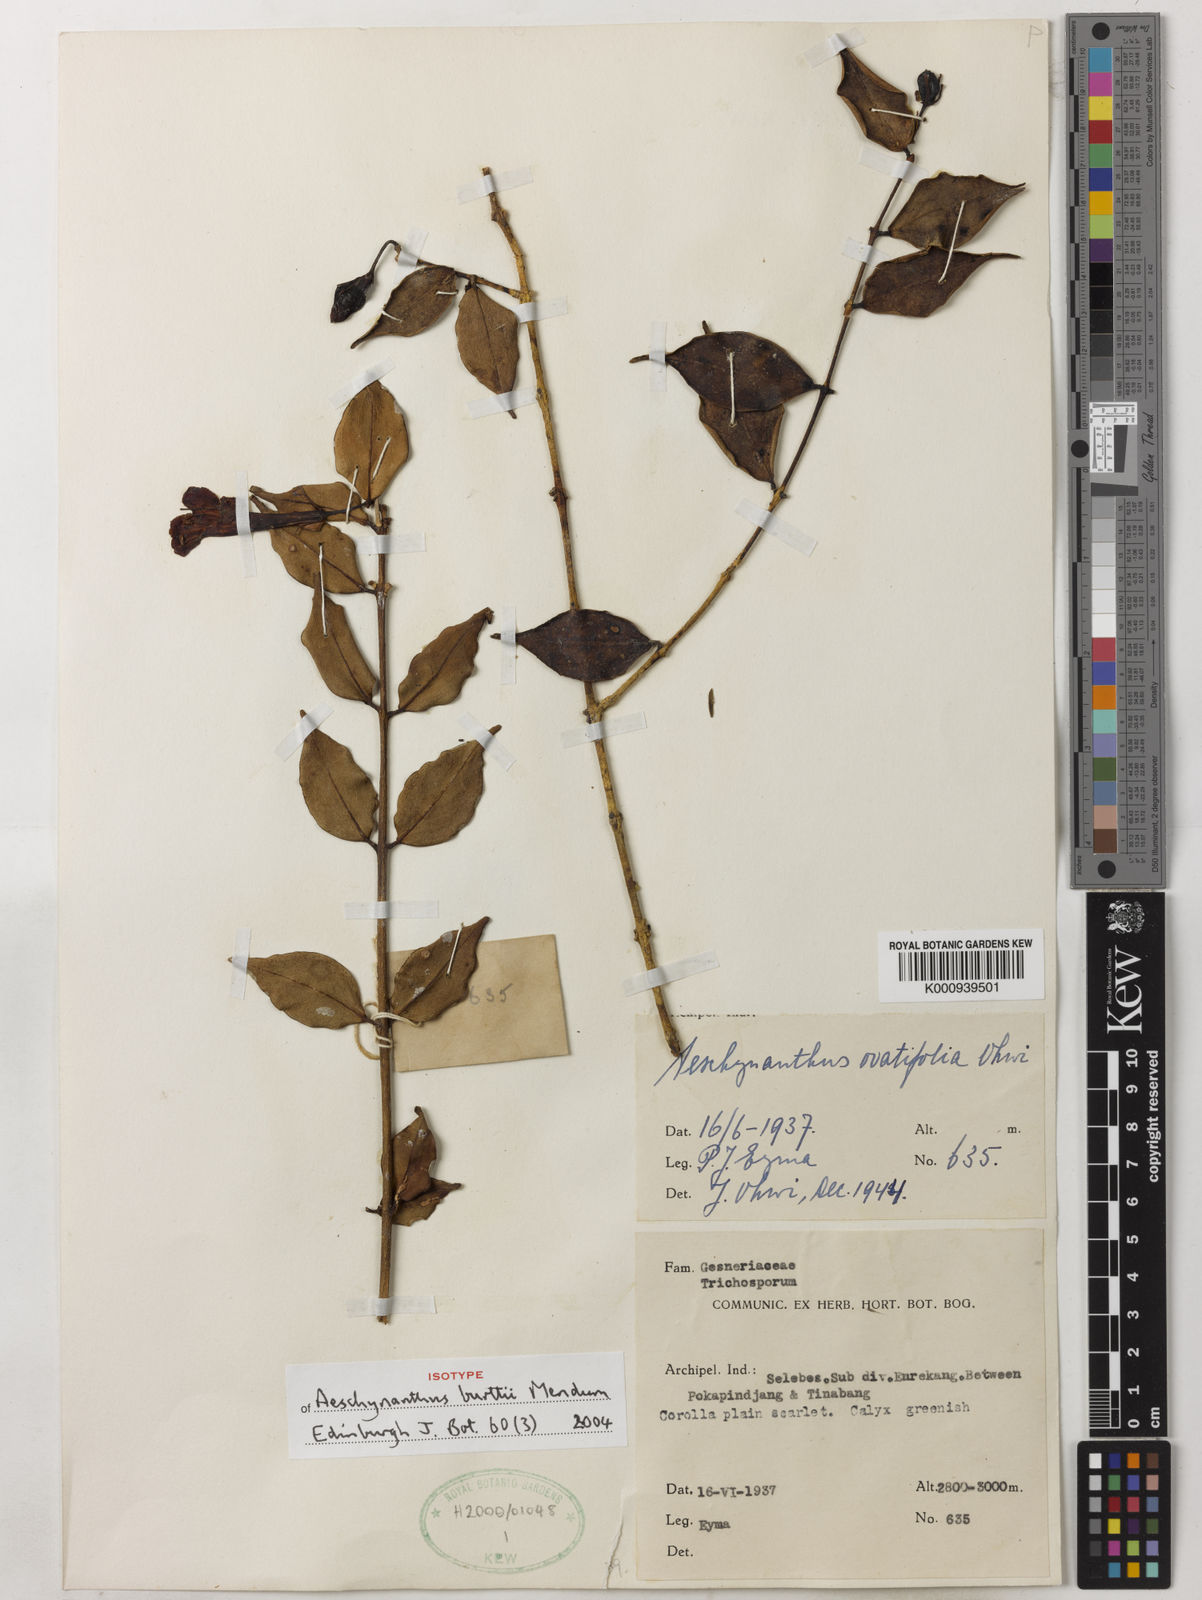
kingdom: Plantae
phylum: Tracheophyta
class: Magnoliopsida
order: Lamiales
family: Gesneriaceae
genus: Aeschynanthus
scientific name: Aeschynanthus burttii
